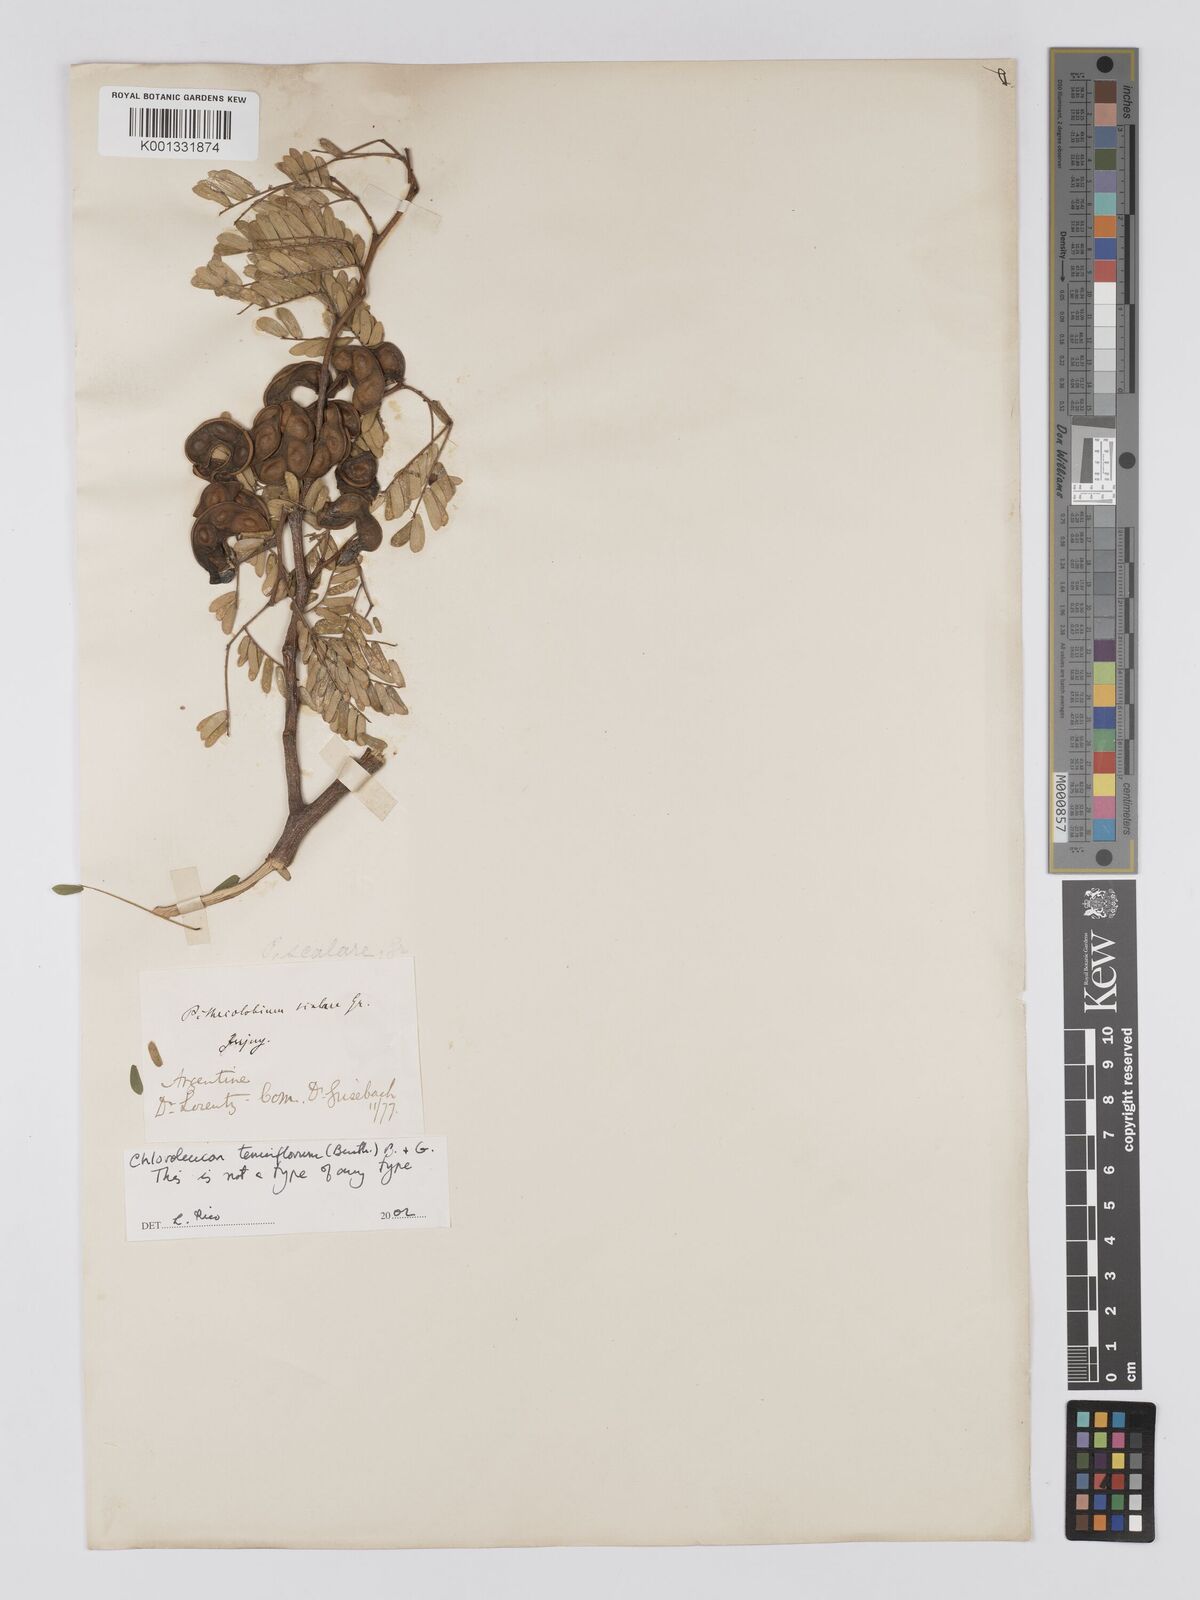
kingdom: Plantae
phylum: Tracheophyta
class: Magnoliopsida
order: Fabales
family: Fabaceae
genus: Chloroleucon
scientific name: Chloroleucon tenuiflorum
